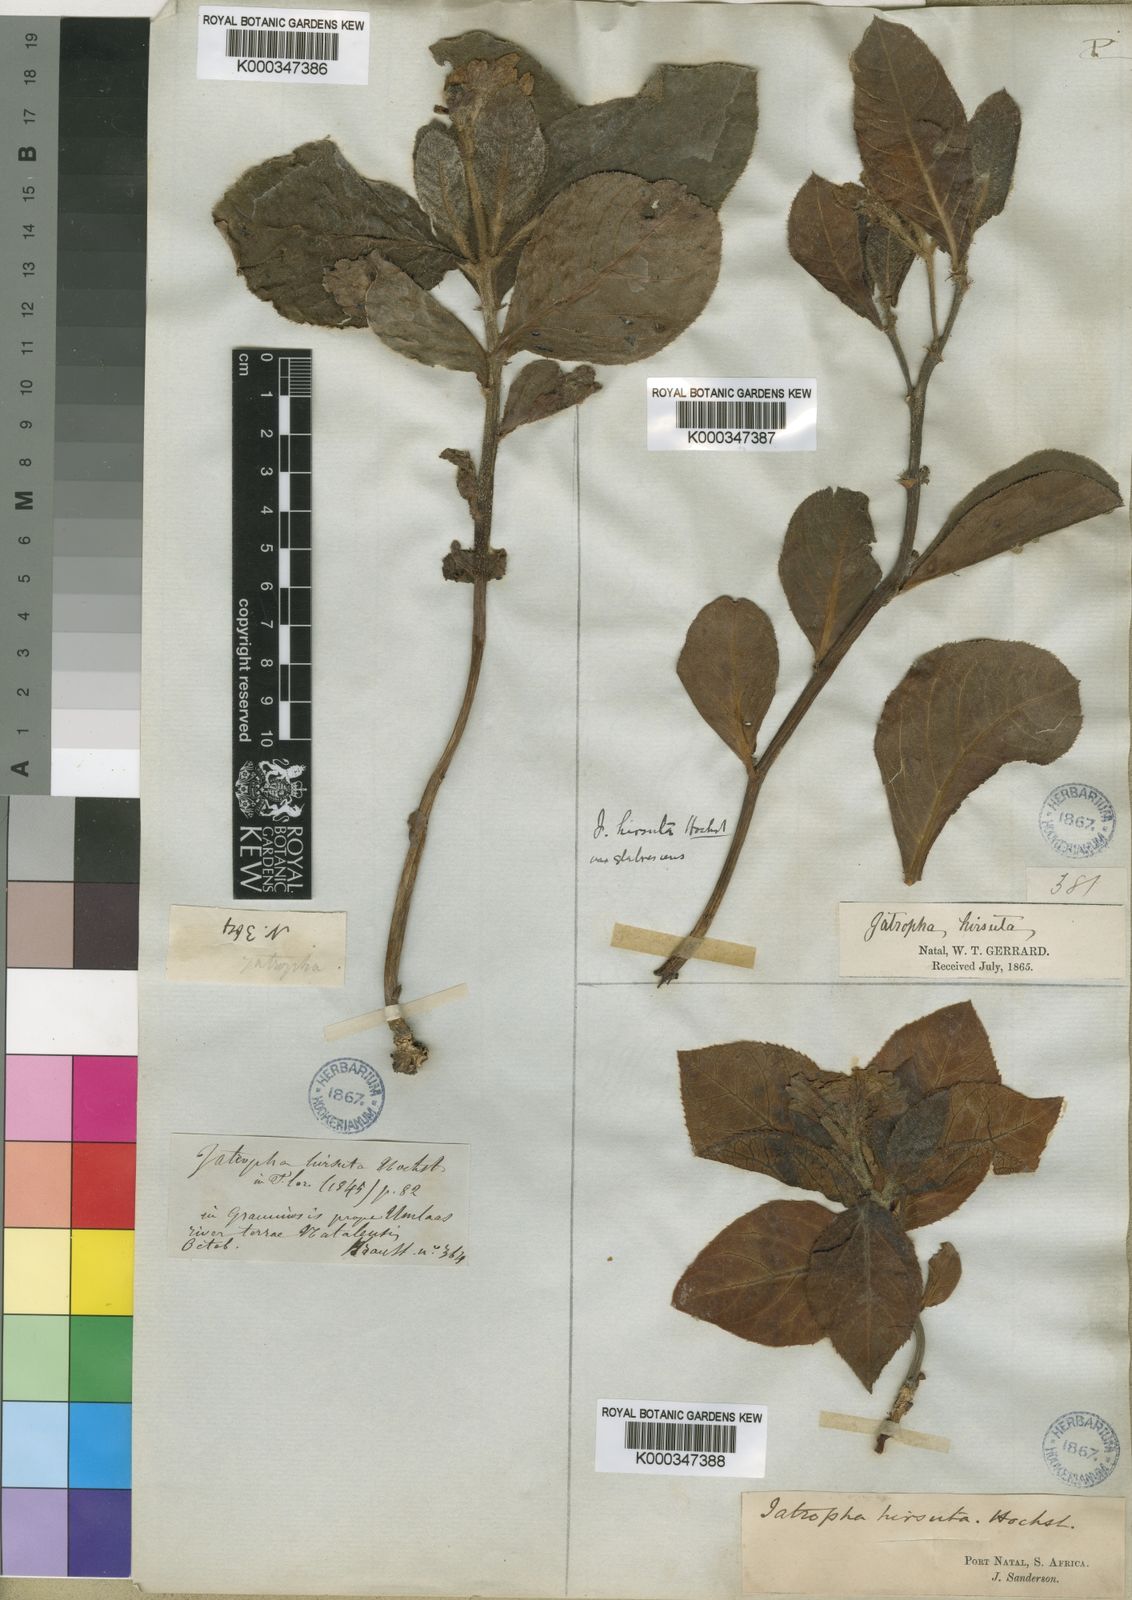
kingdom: Plantae
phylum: Tracheophyta
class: Magnoliopsida
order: Malpighiales
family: Euphorbiaceae
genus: Jatropha
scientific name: Jatropha hirsuta
